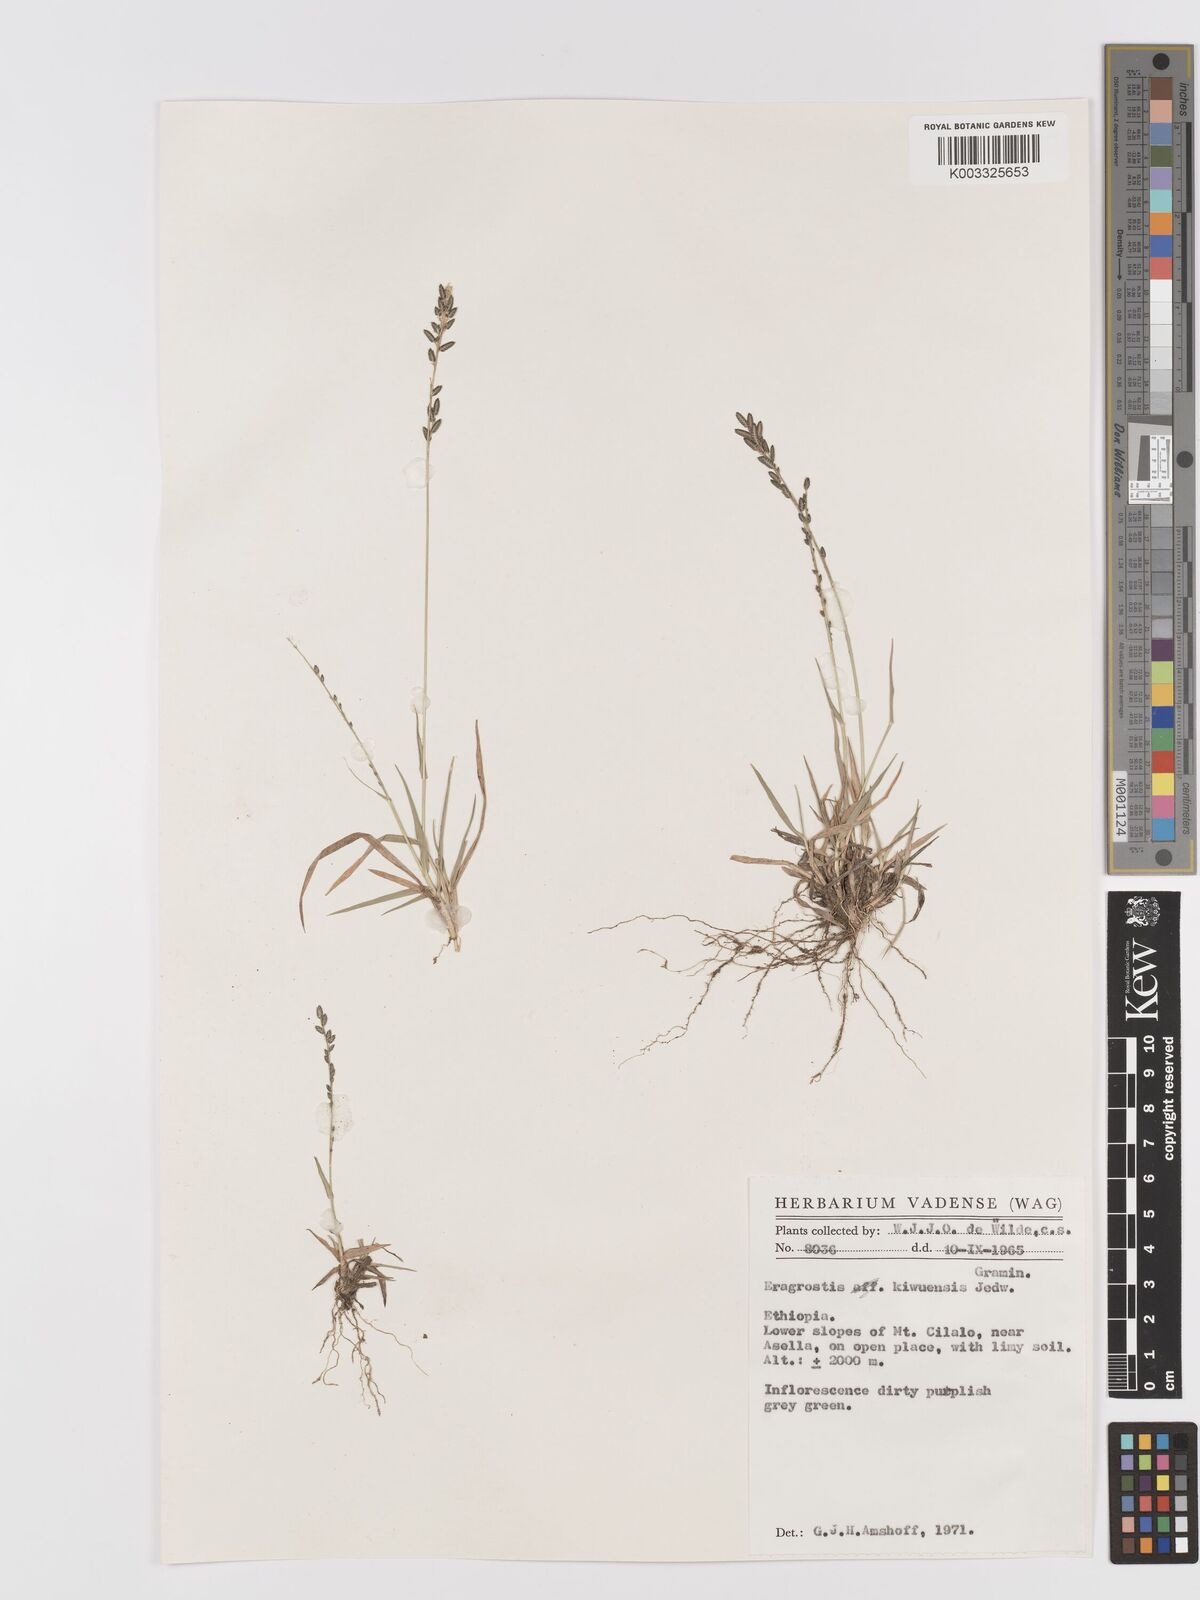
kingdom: Plantae
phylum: Tracheophyta
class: Liliopsida
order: Poales
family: Poaceae
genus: Eragrostis
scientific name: Eragrostis schweinfurthii
